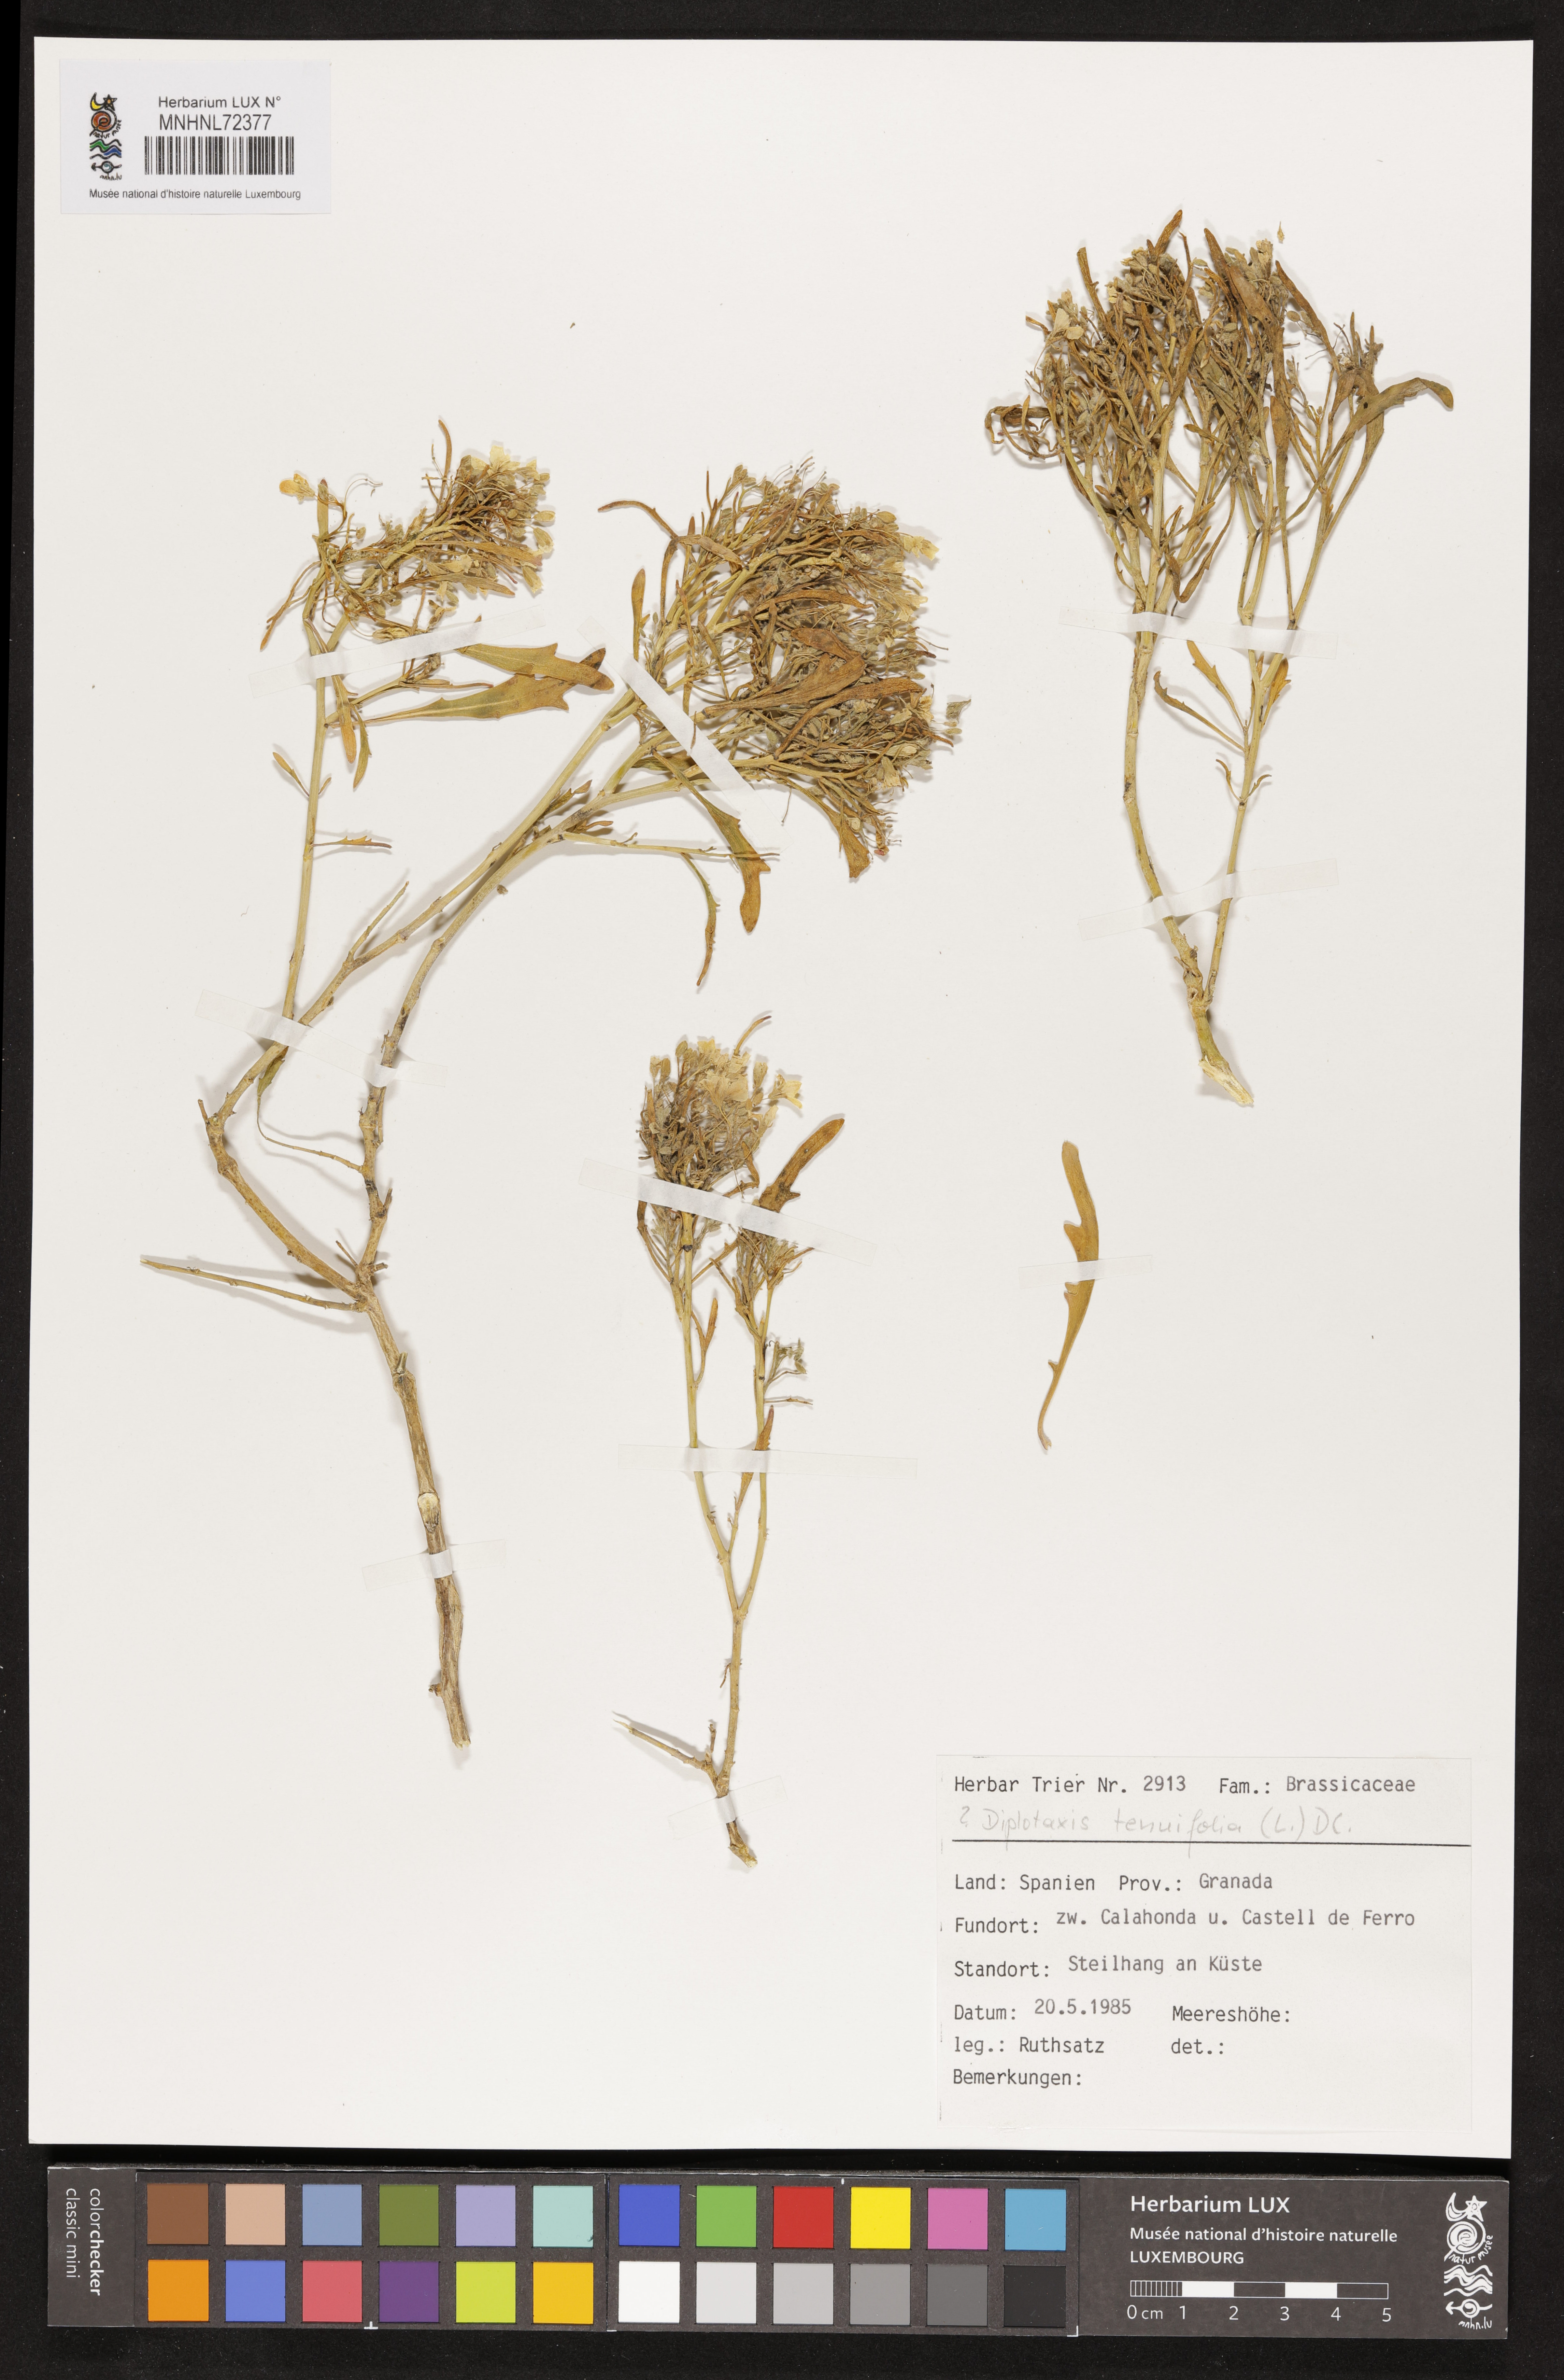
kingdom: Plantae
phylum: Tracheophyta
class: Magnoliopsida
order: Brassicales
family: Brassicaceae
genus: Diplotaxis
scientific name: Diplotaxis tenuifolia
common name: Perennial wall-rocket
